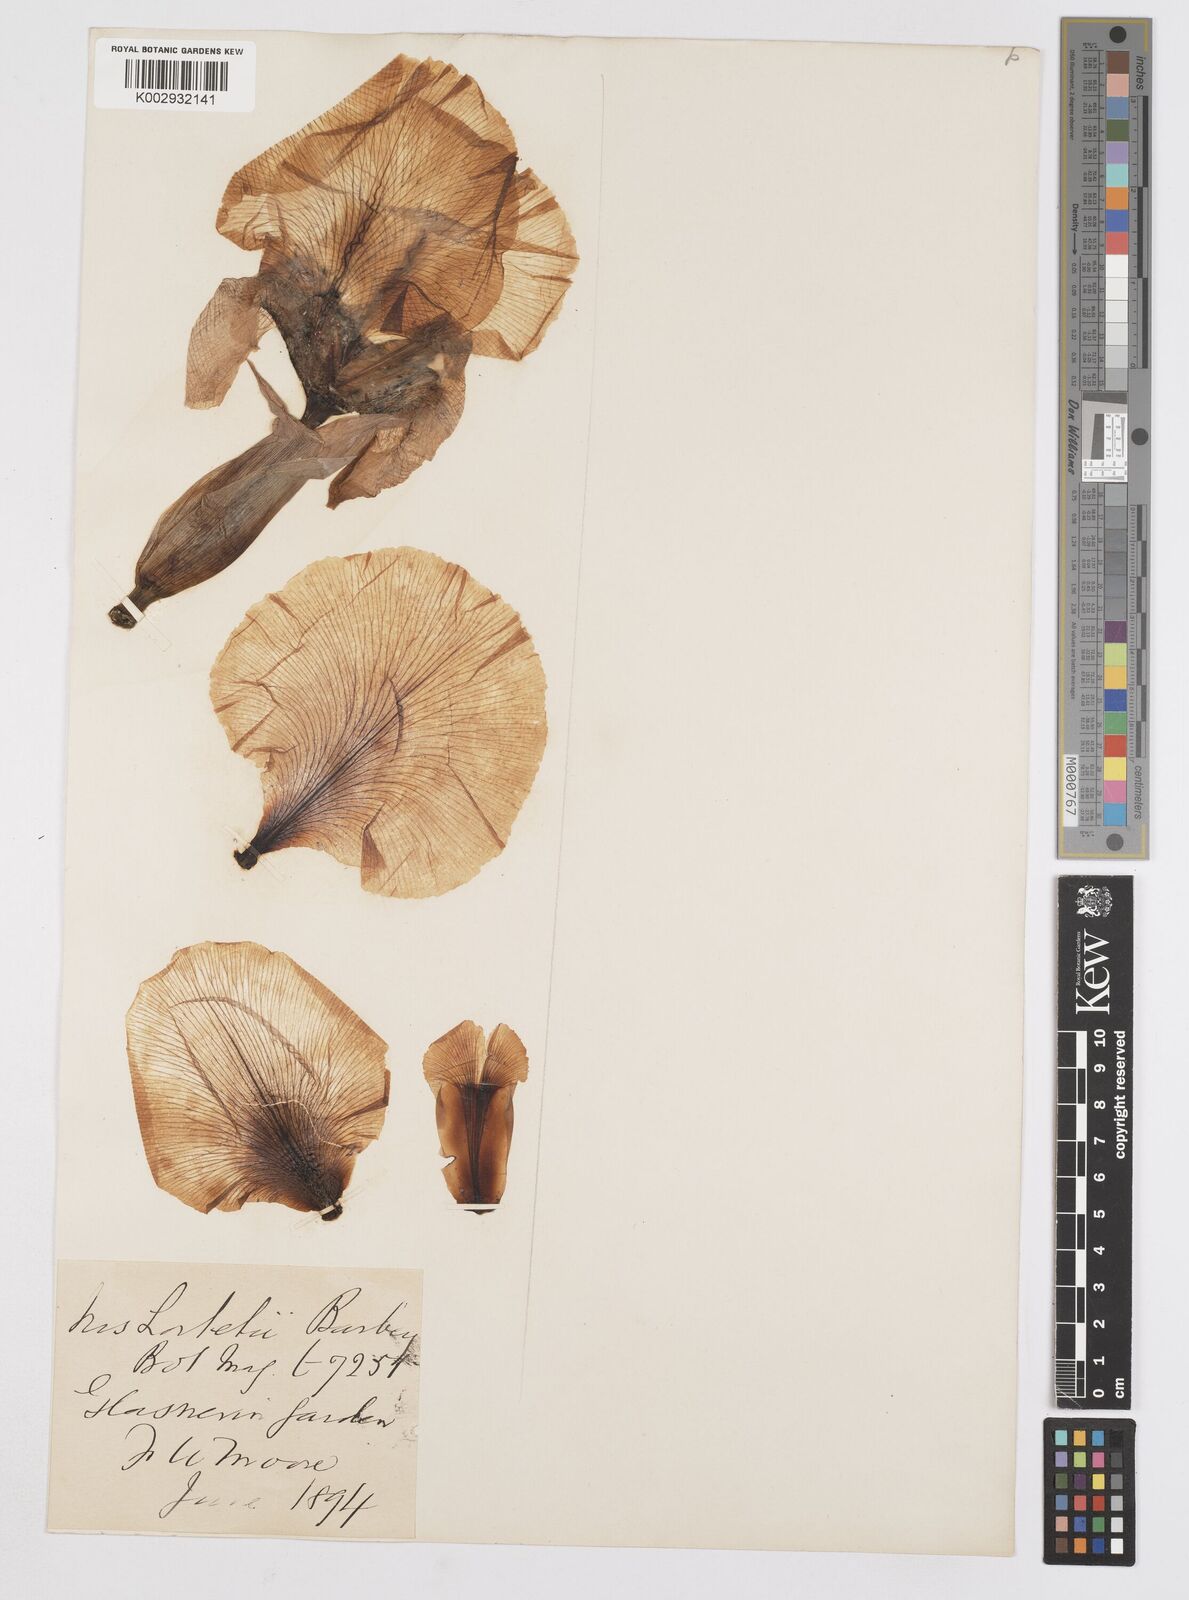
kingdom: Plantae
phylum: Tracheophyta
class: Liliopsida
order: Asparagales
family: Iridaceae
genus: Iris
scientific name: Iris lortetii
